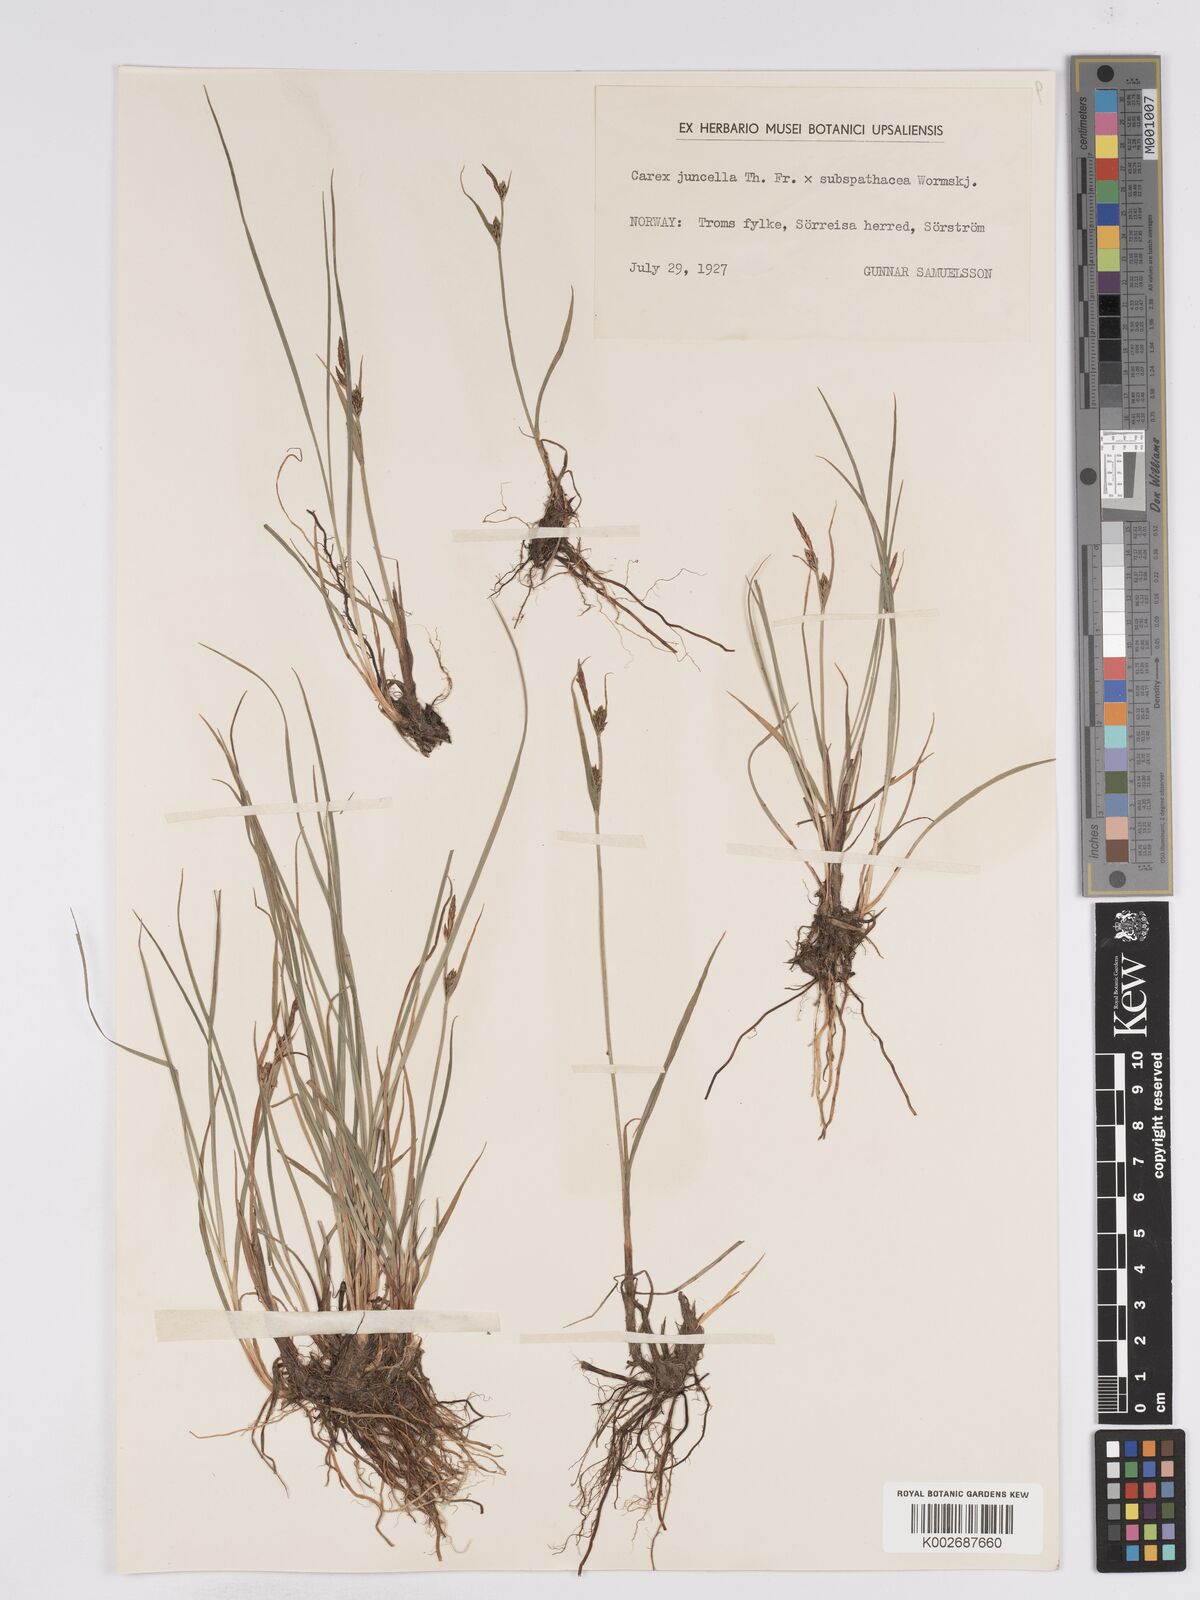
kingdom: Plantae
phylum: Tracheophyta
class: Liliopsida
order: Poales
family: Cyperaceae
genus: Carex
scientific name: Carex
